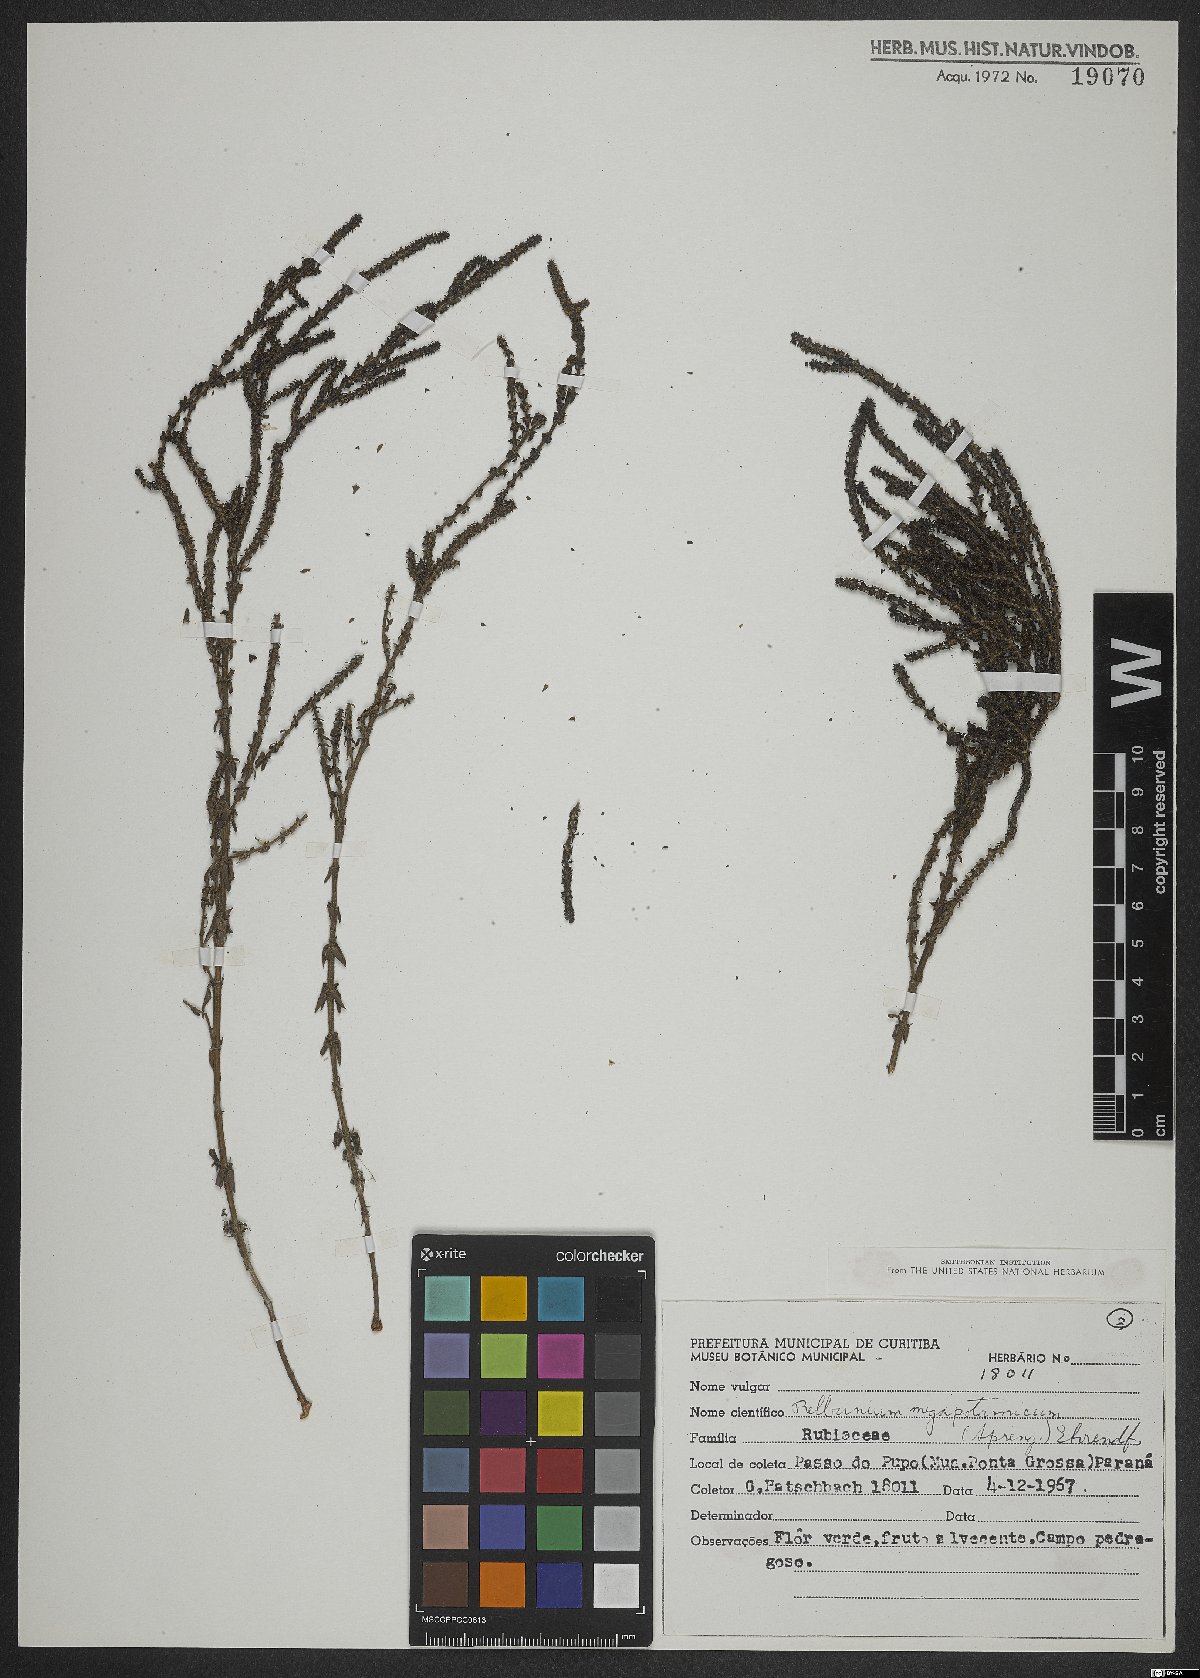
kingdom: Plantae
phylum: Tracheophyta
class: Magnoliopsida
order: Gentianales
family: Rubiaceae
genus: Galium
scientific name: Galium megapotamicum
